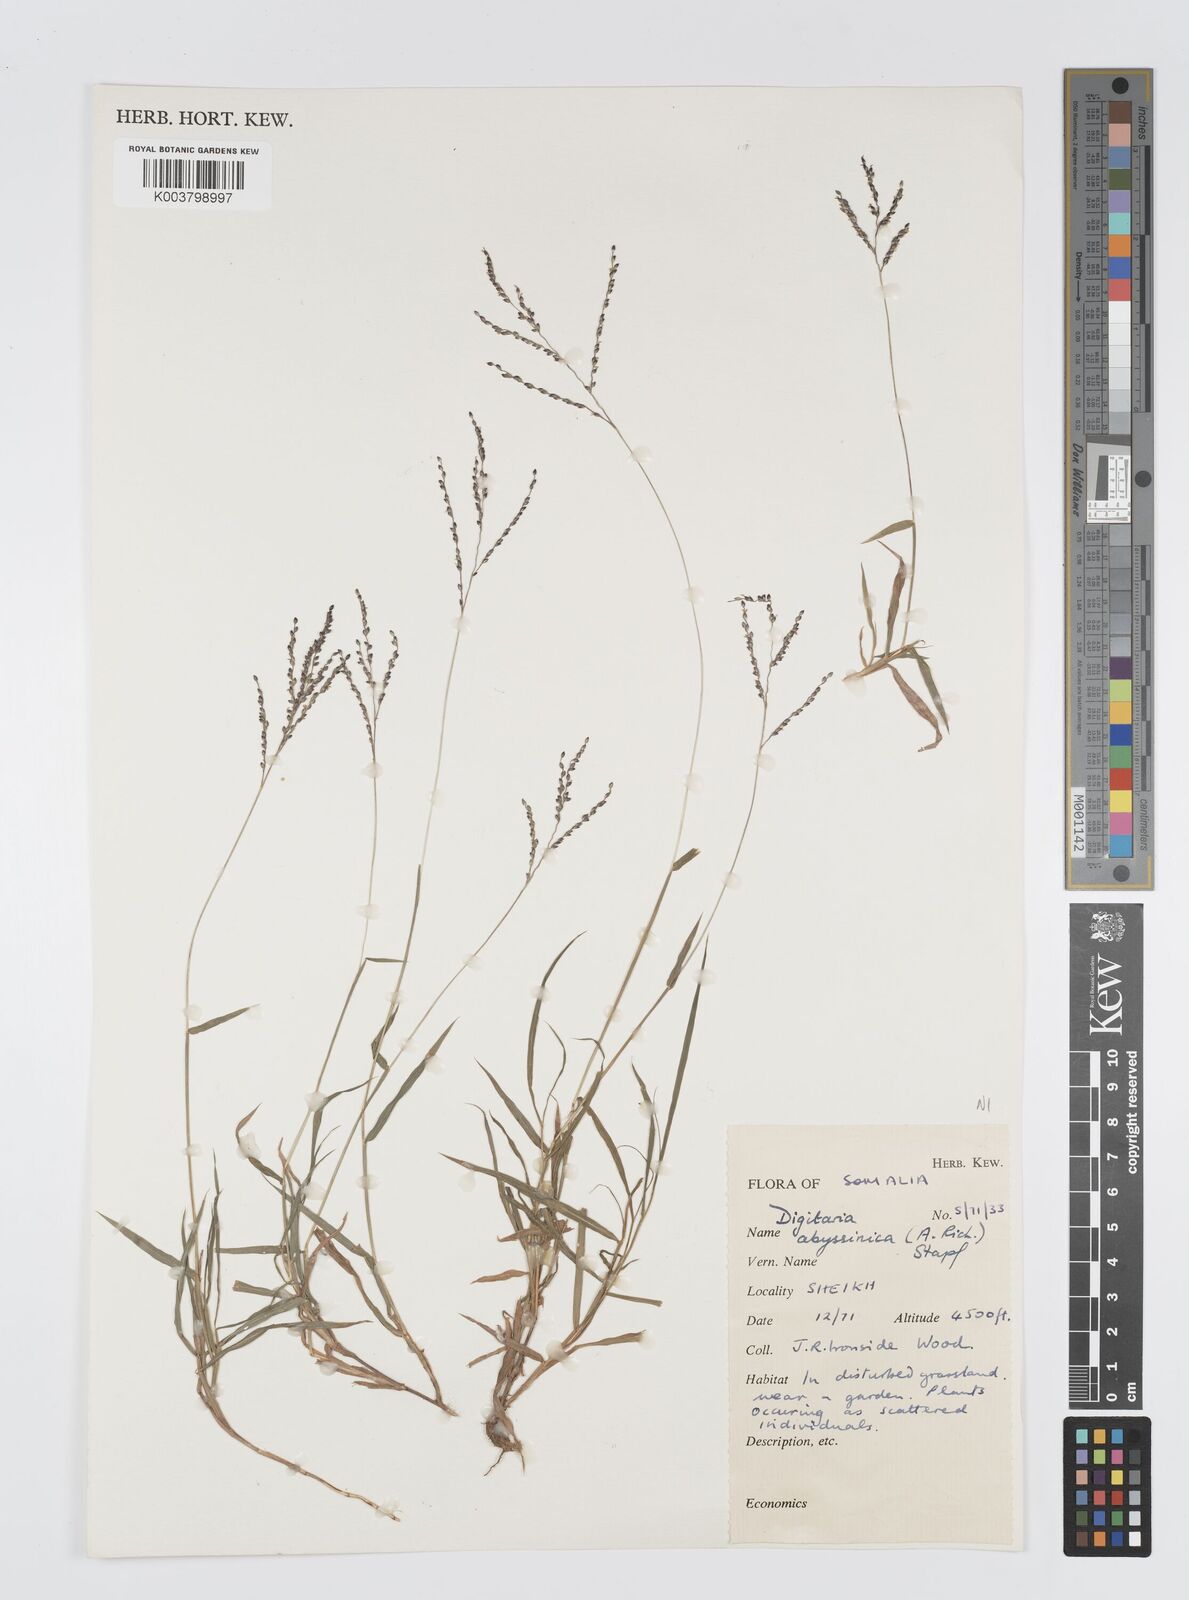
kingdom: Plantae
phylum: Tracheophyta
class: Liliopsida
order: Poales
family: Poaceae
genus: Digitaria
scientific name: Digitaria abyssinica
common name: African couchgrass
